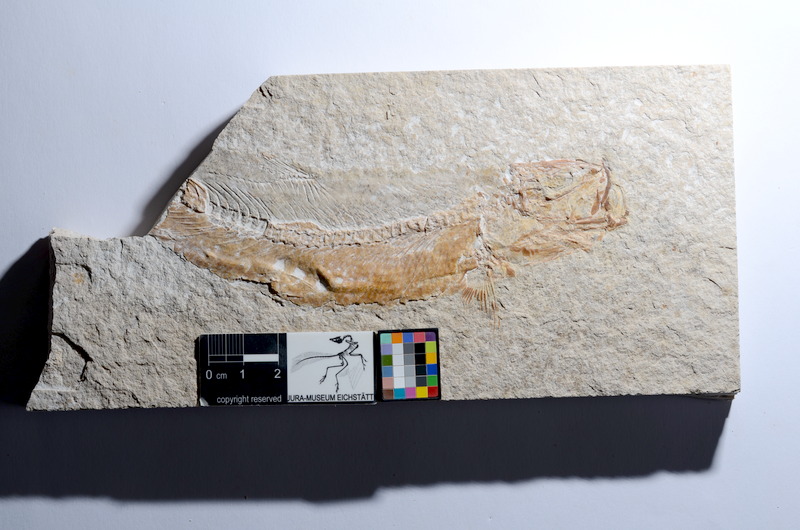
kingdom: Animalia
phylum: Chordata
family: Ascalaboidae
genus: Tharsis
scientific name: Tharsis dubius
